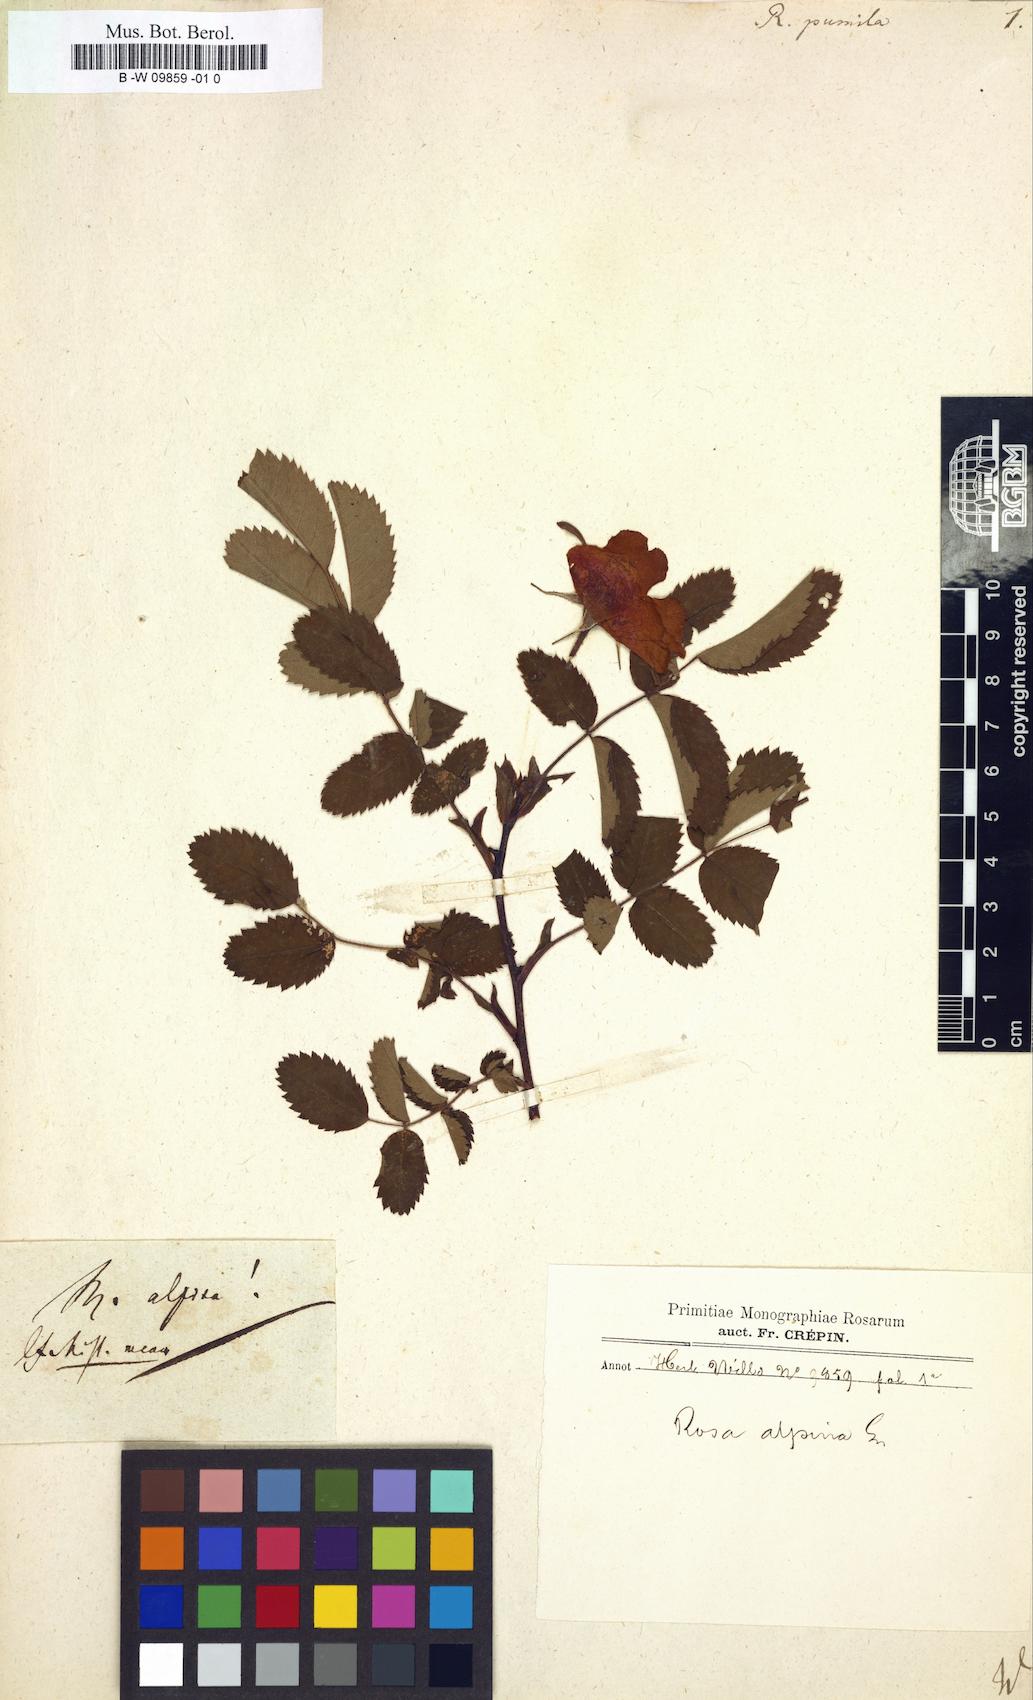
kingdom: Plantae
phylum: Tracheophyta
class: Magnoliopsida
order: Rosales
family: Rosaceae
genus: Rosa
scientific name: Rosa gallica
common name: French rose
